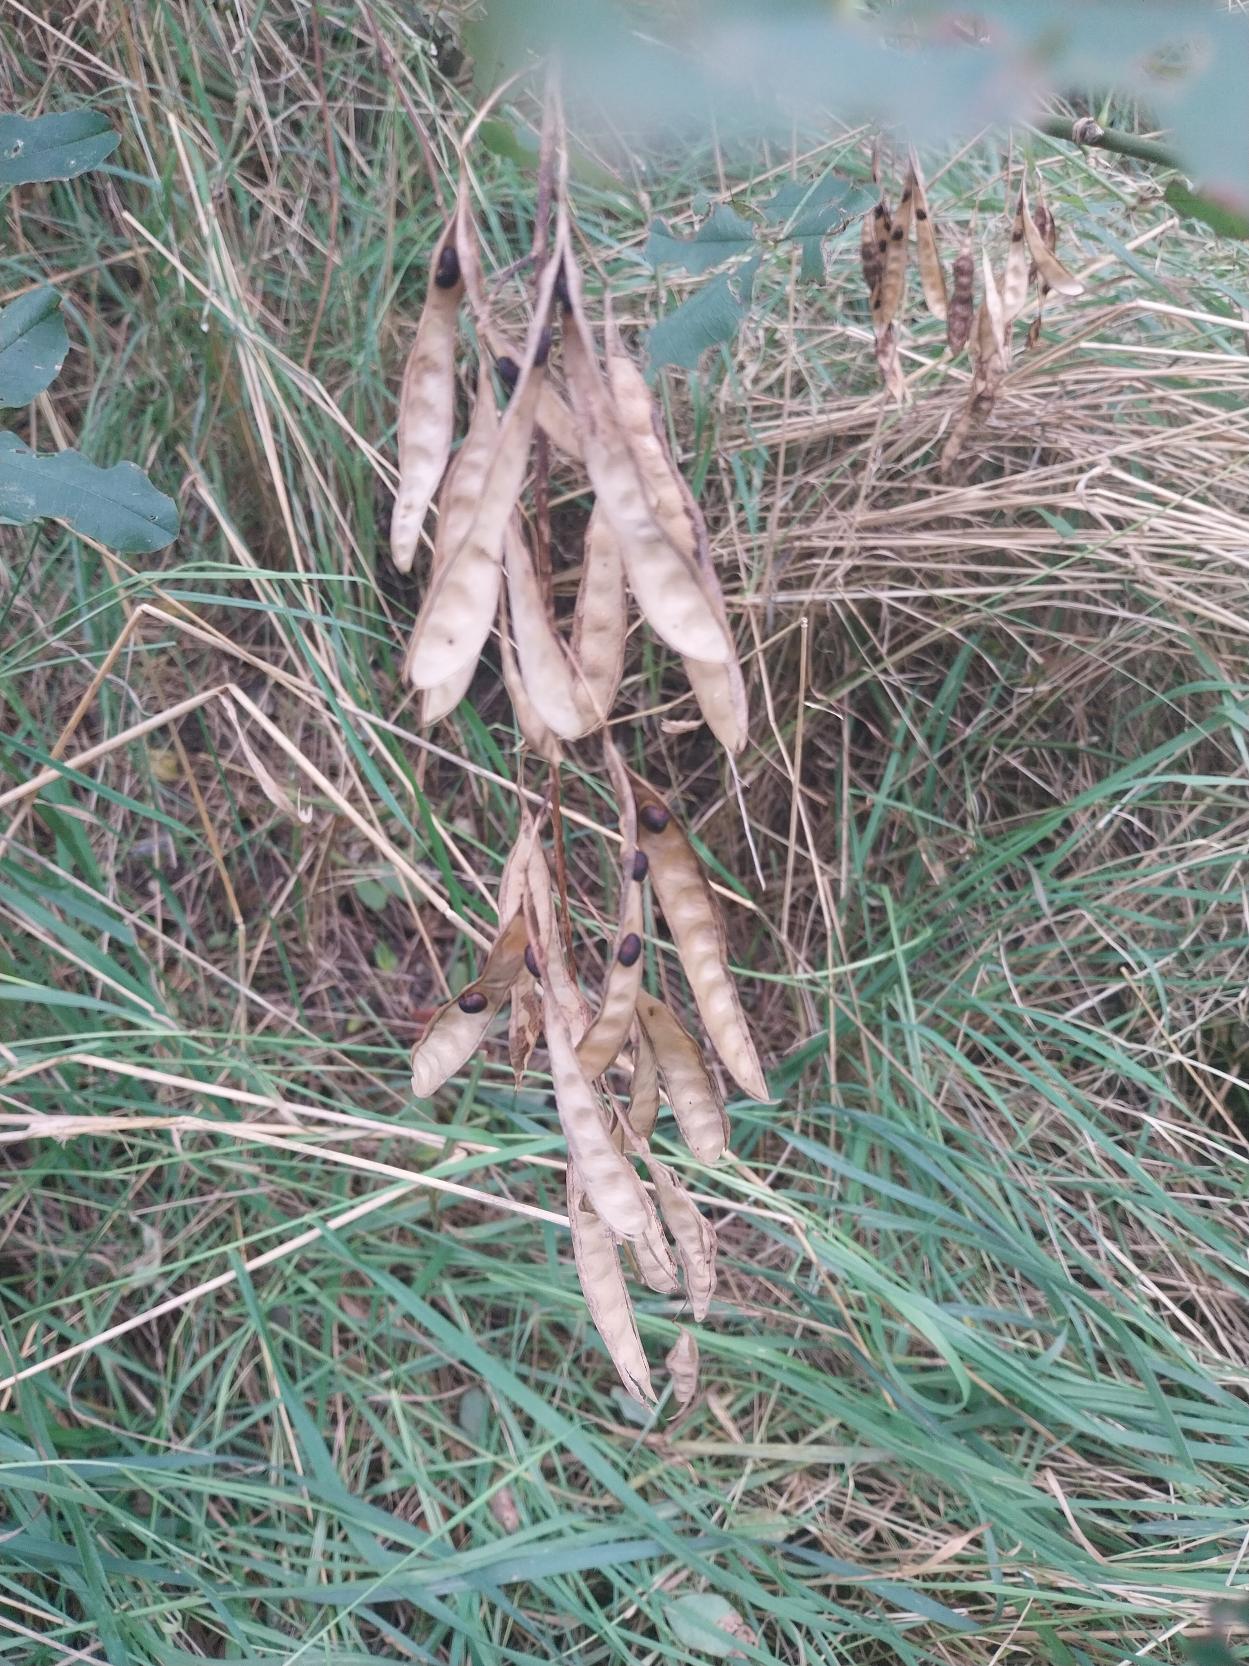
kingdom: Plantae
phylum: Tracheophyta
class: Magnoliopsida
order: Fabales
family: Fabaceae
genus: Laburnum
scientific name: Laburnum anagyroides
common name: Guldregn
